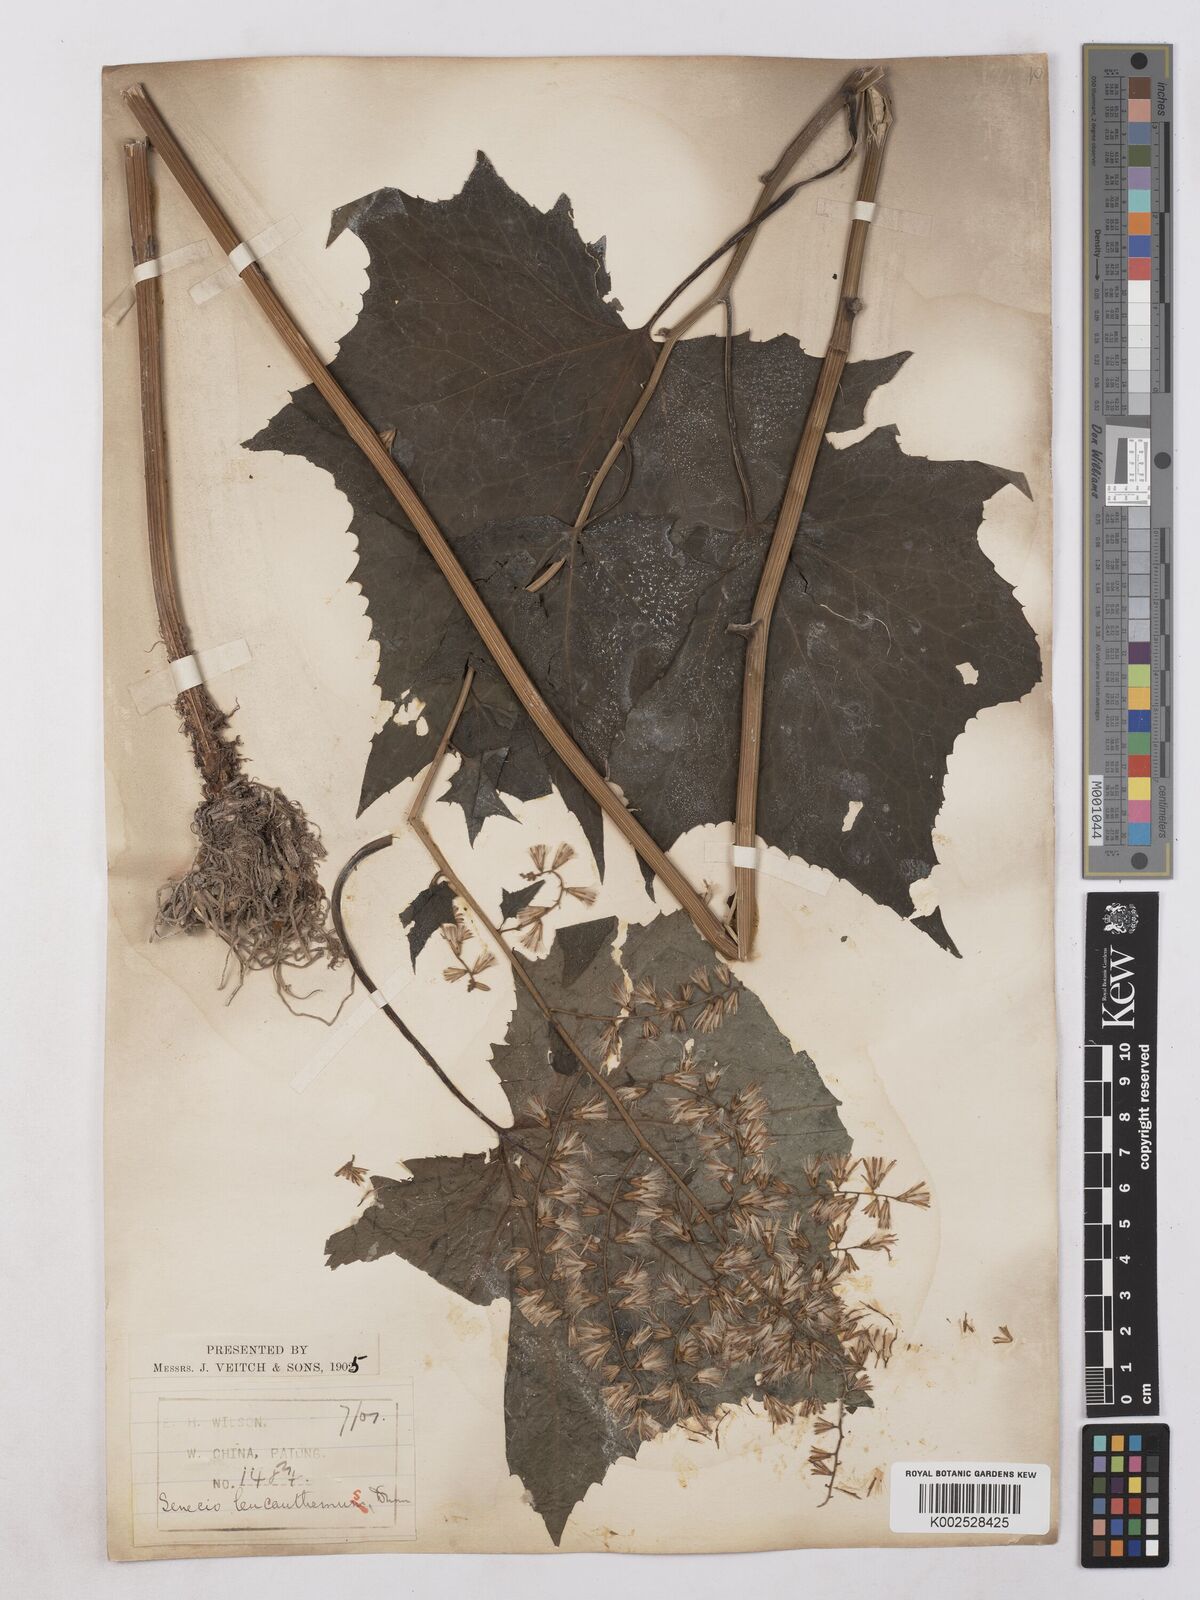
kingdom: Plantae
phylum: Tracheophyta
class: Magnoliopsida
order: Asterales
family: Asteraceae
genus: Parasenecio
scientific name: Parasenecio ainsliaeiflorus
